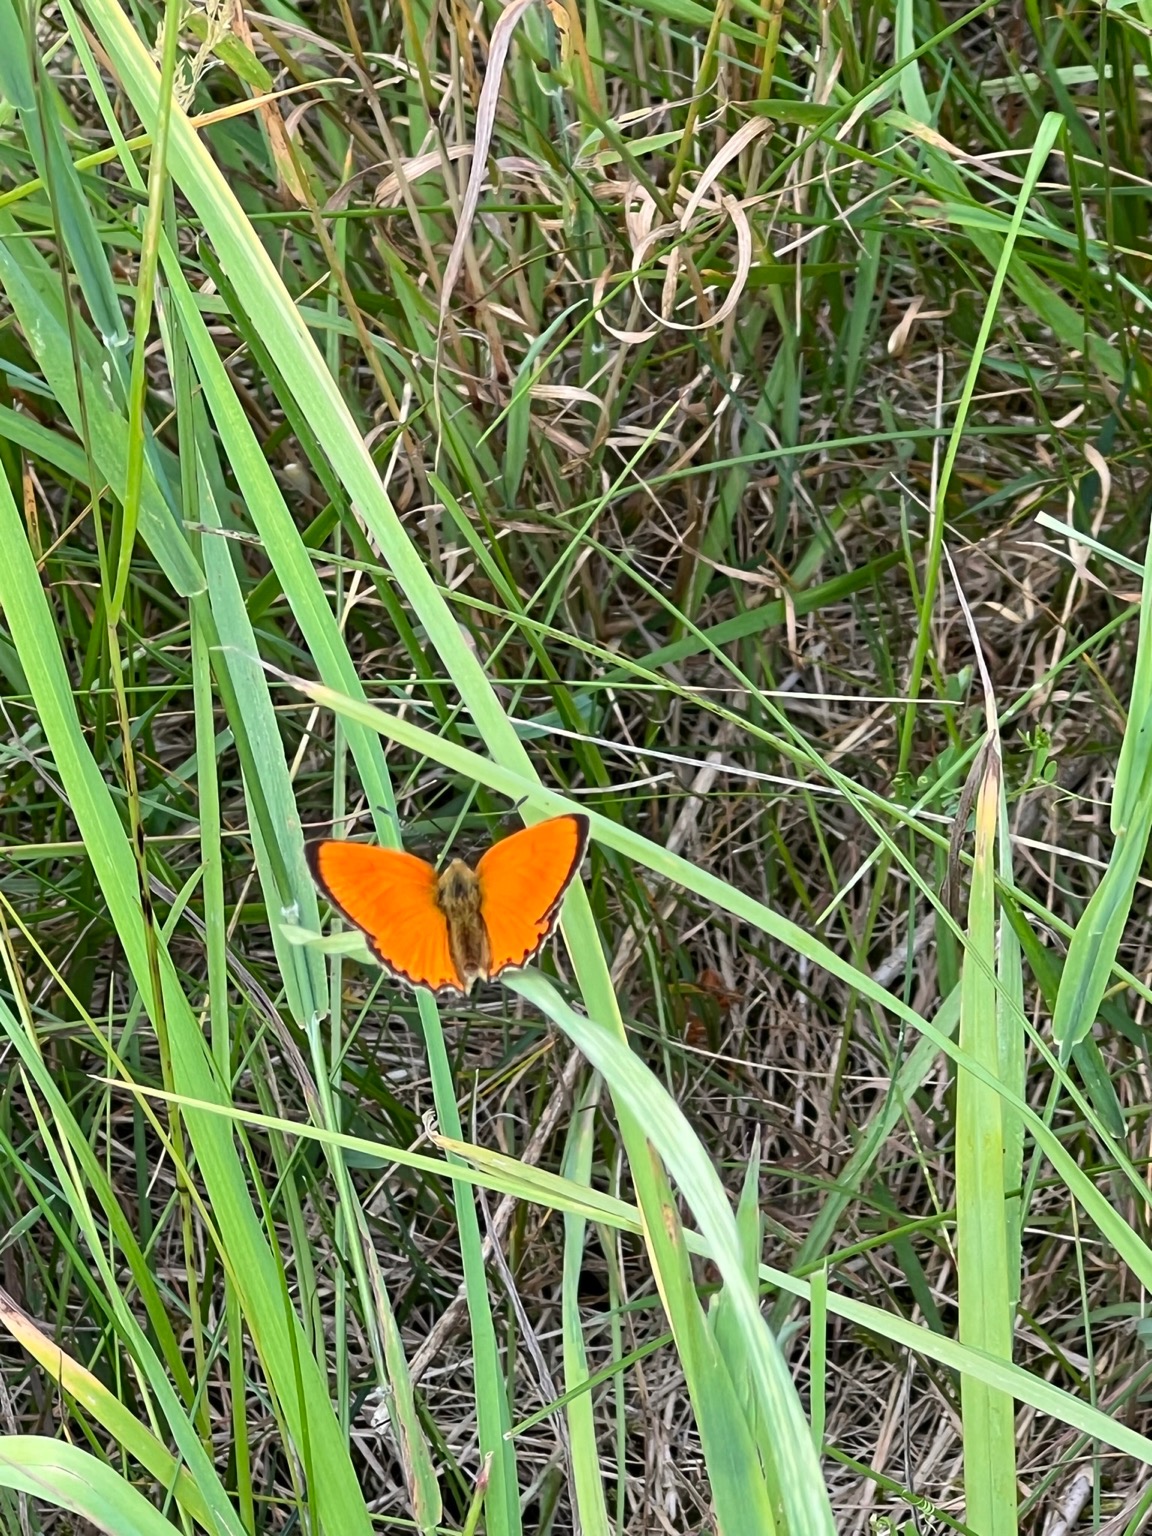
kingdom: Animalia
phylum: Arthropoda
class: Insecta
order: Lepidoptera
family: Lycaenidae
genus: Lycaena
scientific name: Lycaena virgaureae
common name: Dukatsommerfugl
